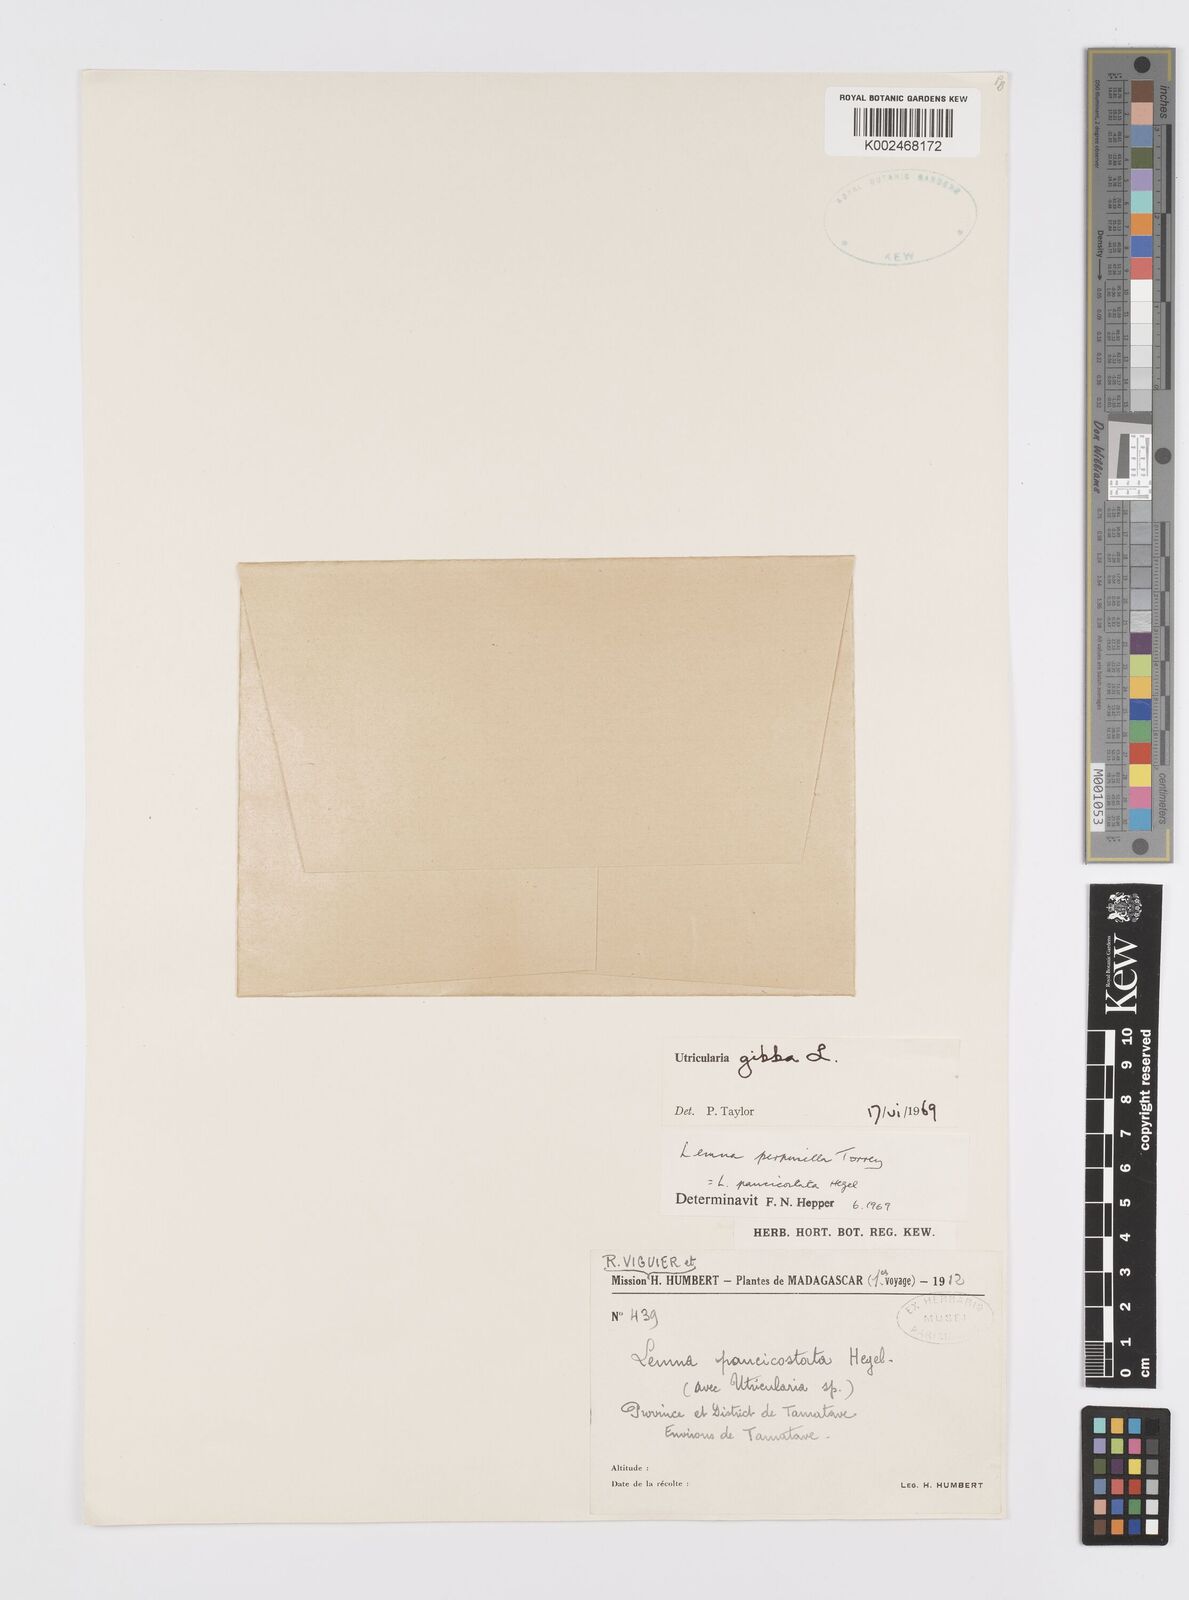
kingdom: Plantae
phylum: Tracheophyta
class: Liliopsida
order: Alismatales
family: Araceae
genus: Lemna
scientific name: Lemna perpusilla
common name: Duckweed
